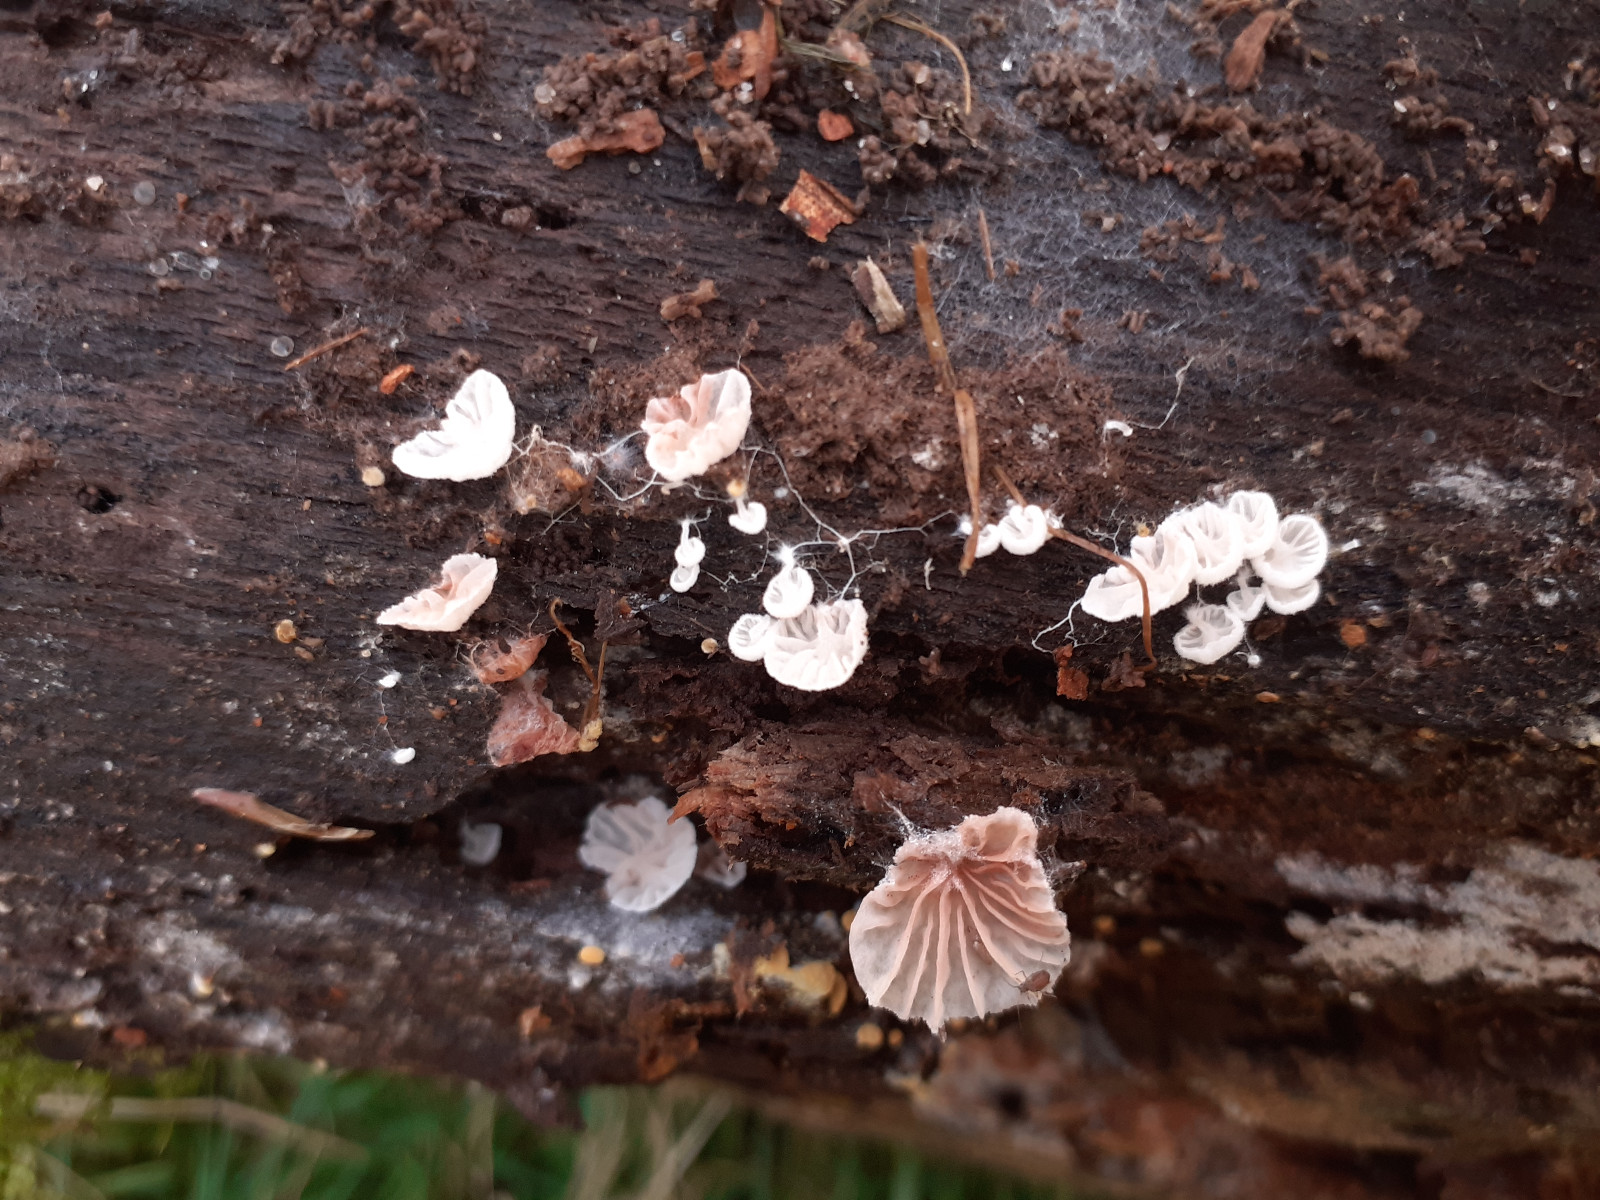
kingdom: Fungi
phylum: Basidiomycota
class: Agaricomycetes
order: Agaricales
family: Entolomataceae
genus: Entoloma
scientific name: Entoloma jahnii
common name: muslinge-rødblad
